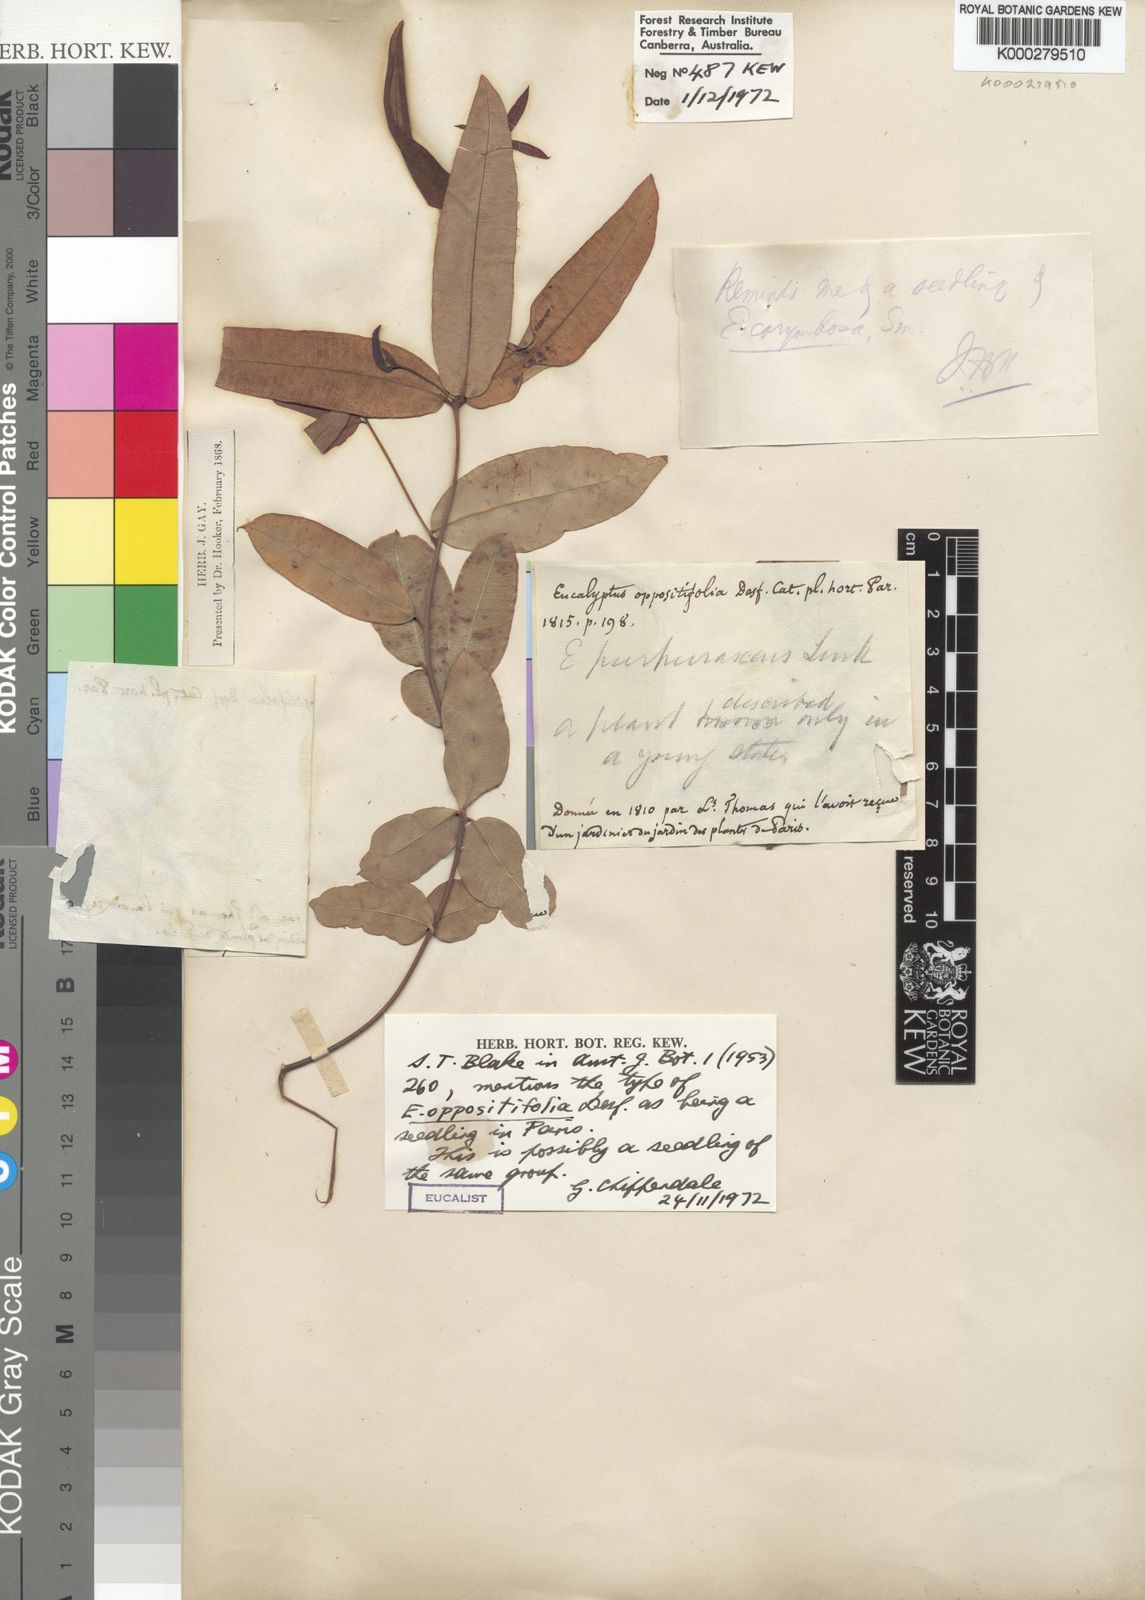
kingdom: Plantae
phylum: Tracheophyta
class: Magnoliopsida
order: Myrtales
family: Myrtaceae
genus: Corymbia
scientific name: Corymbia gummifera
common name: Red bloodwood
